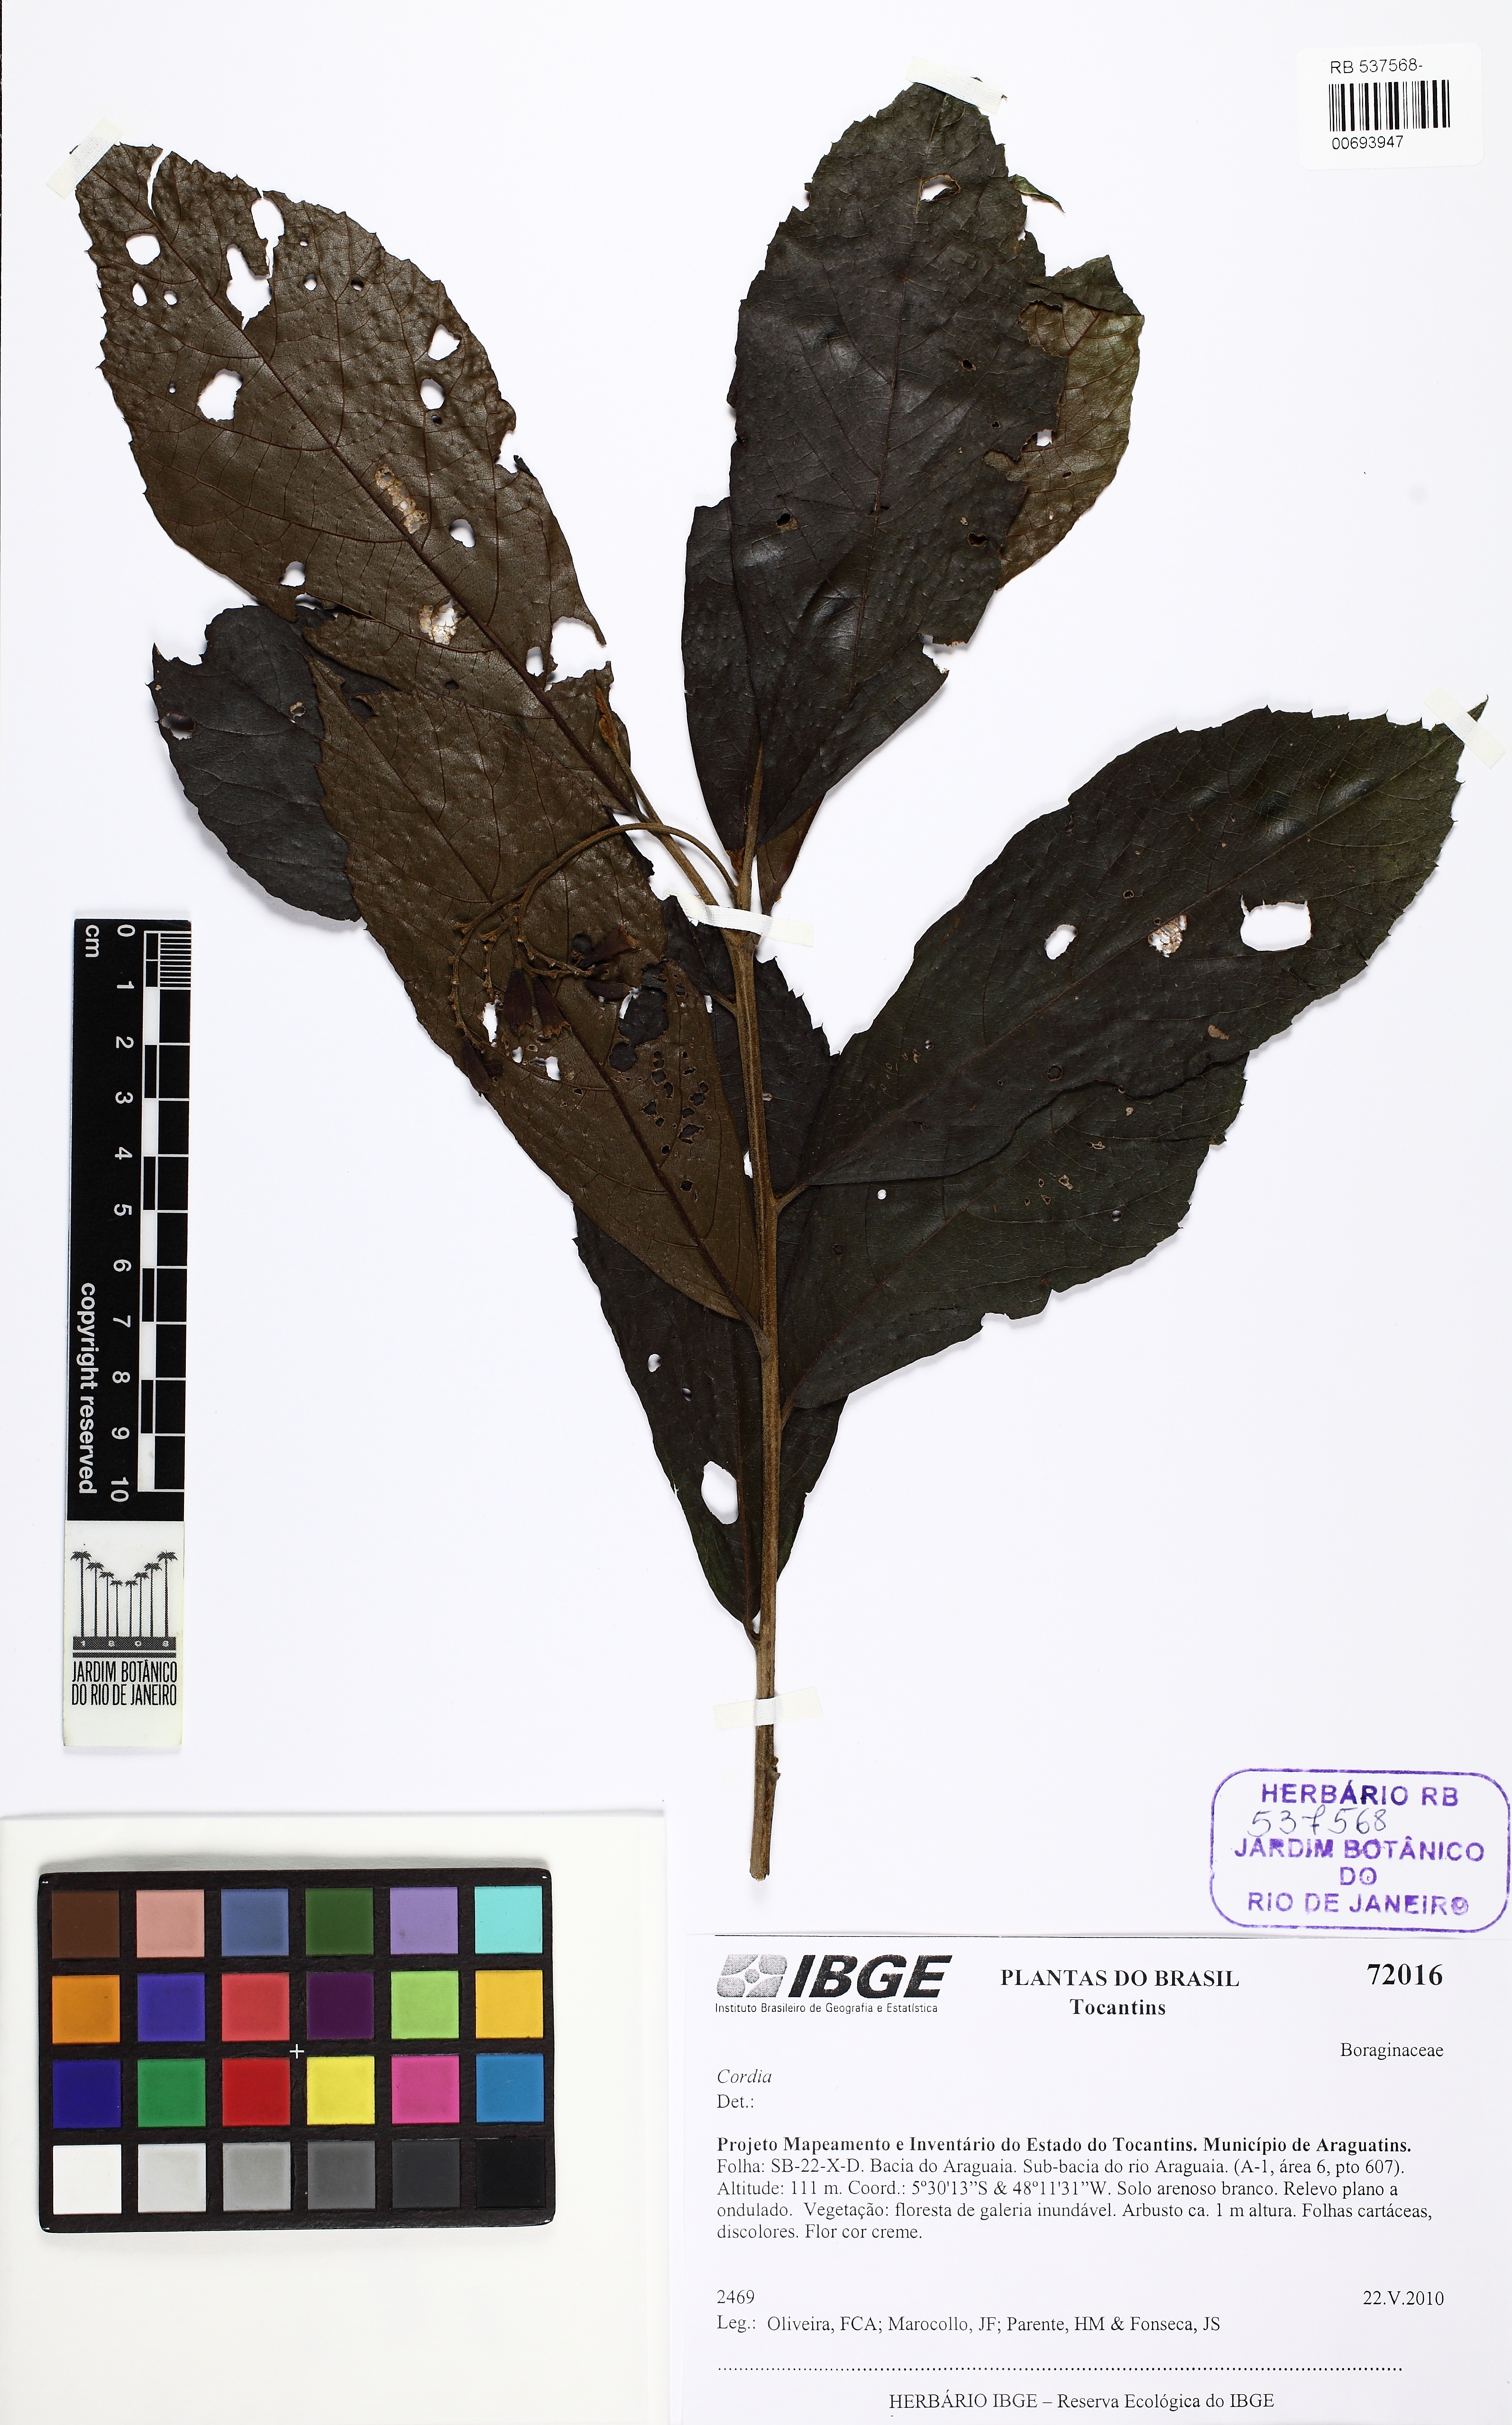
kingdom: Plantae
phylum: Tracheophyta
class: Magnoliopsida
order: Boraginales
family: Cordiaceae
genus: Cordia
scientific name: Cordia
